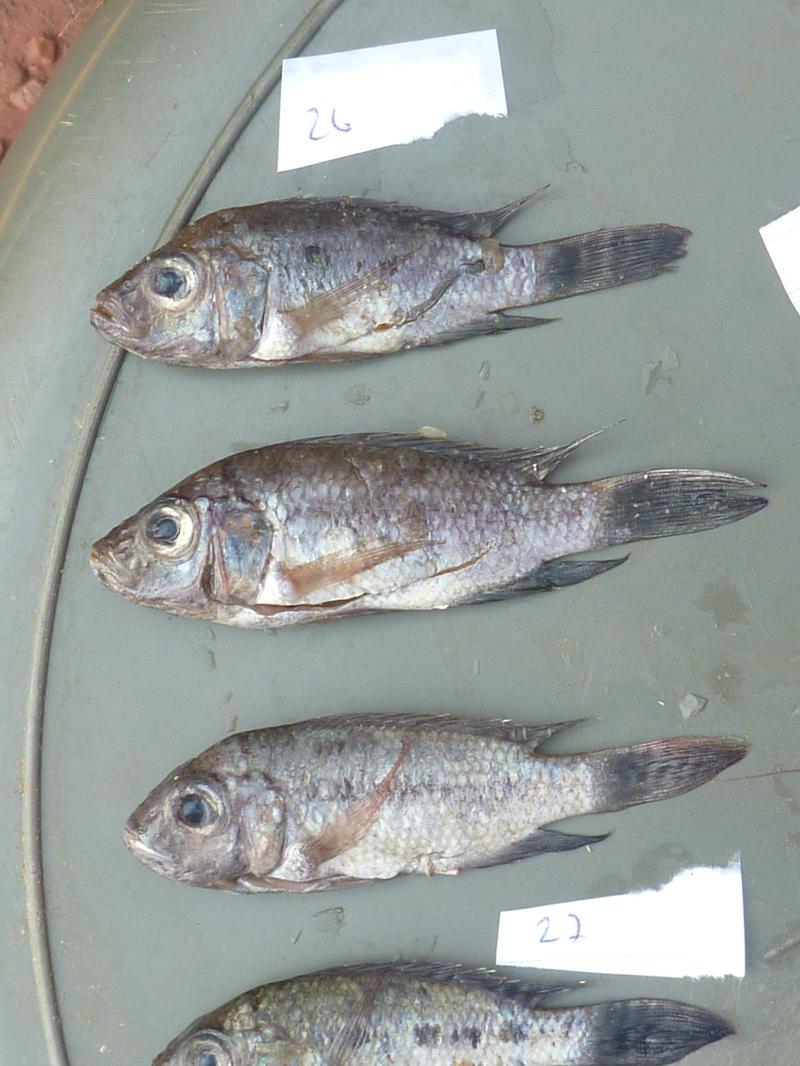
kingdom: Animalia
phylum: Chordata
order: Perciformes
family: Cichlidae
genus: Oreochromis
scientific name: Oreochromis korogwe
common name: Korogwe tilapia
